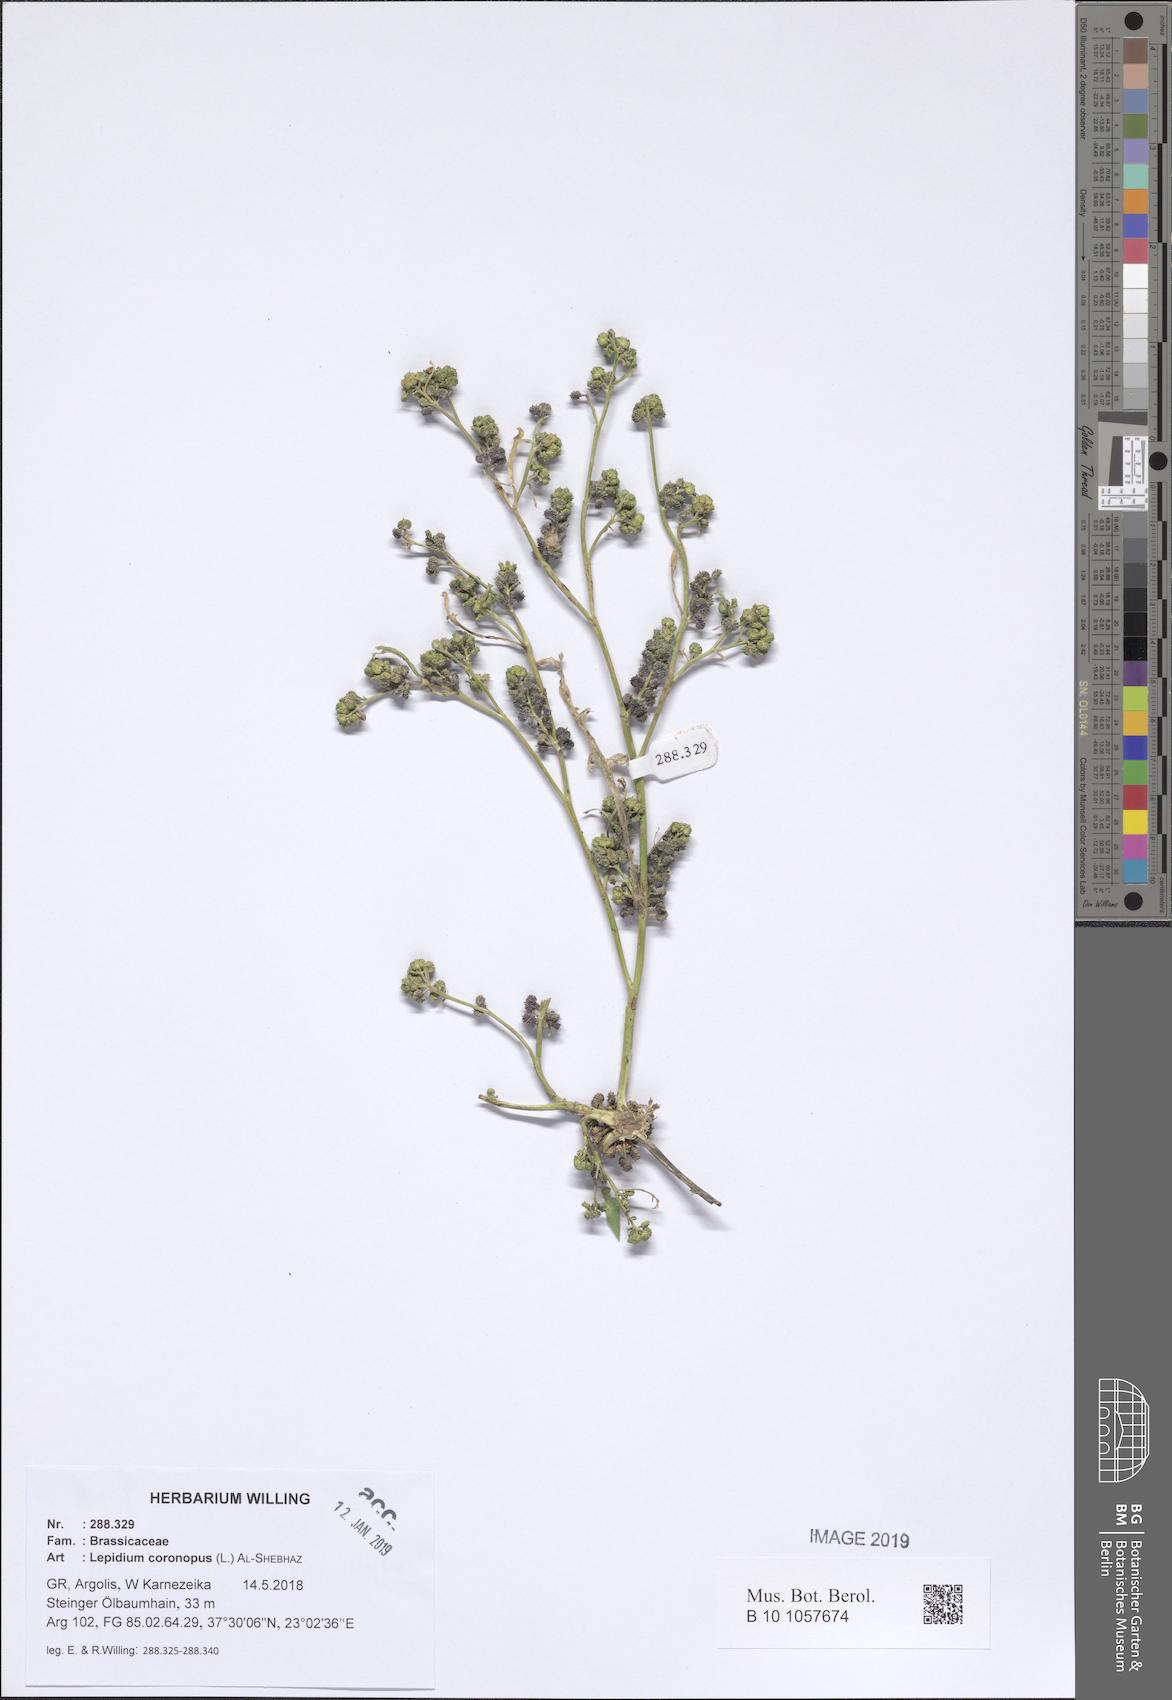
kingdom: Plantae
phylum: Tracheophyta
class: Magnoliopsida
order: Brassicales
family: Brassicaceae
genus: Lepidium
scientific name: Lepidium coronopus
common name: Greater swinecress
